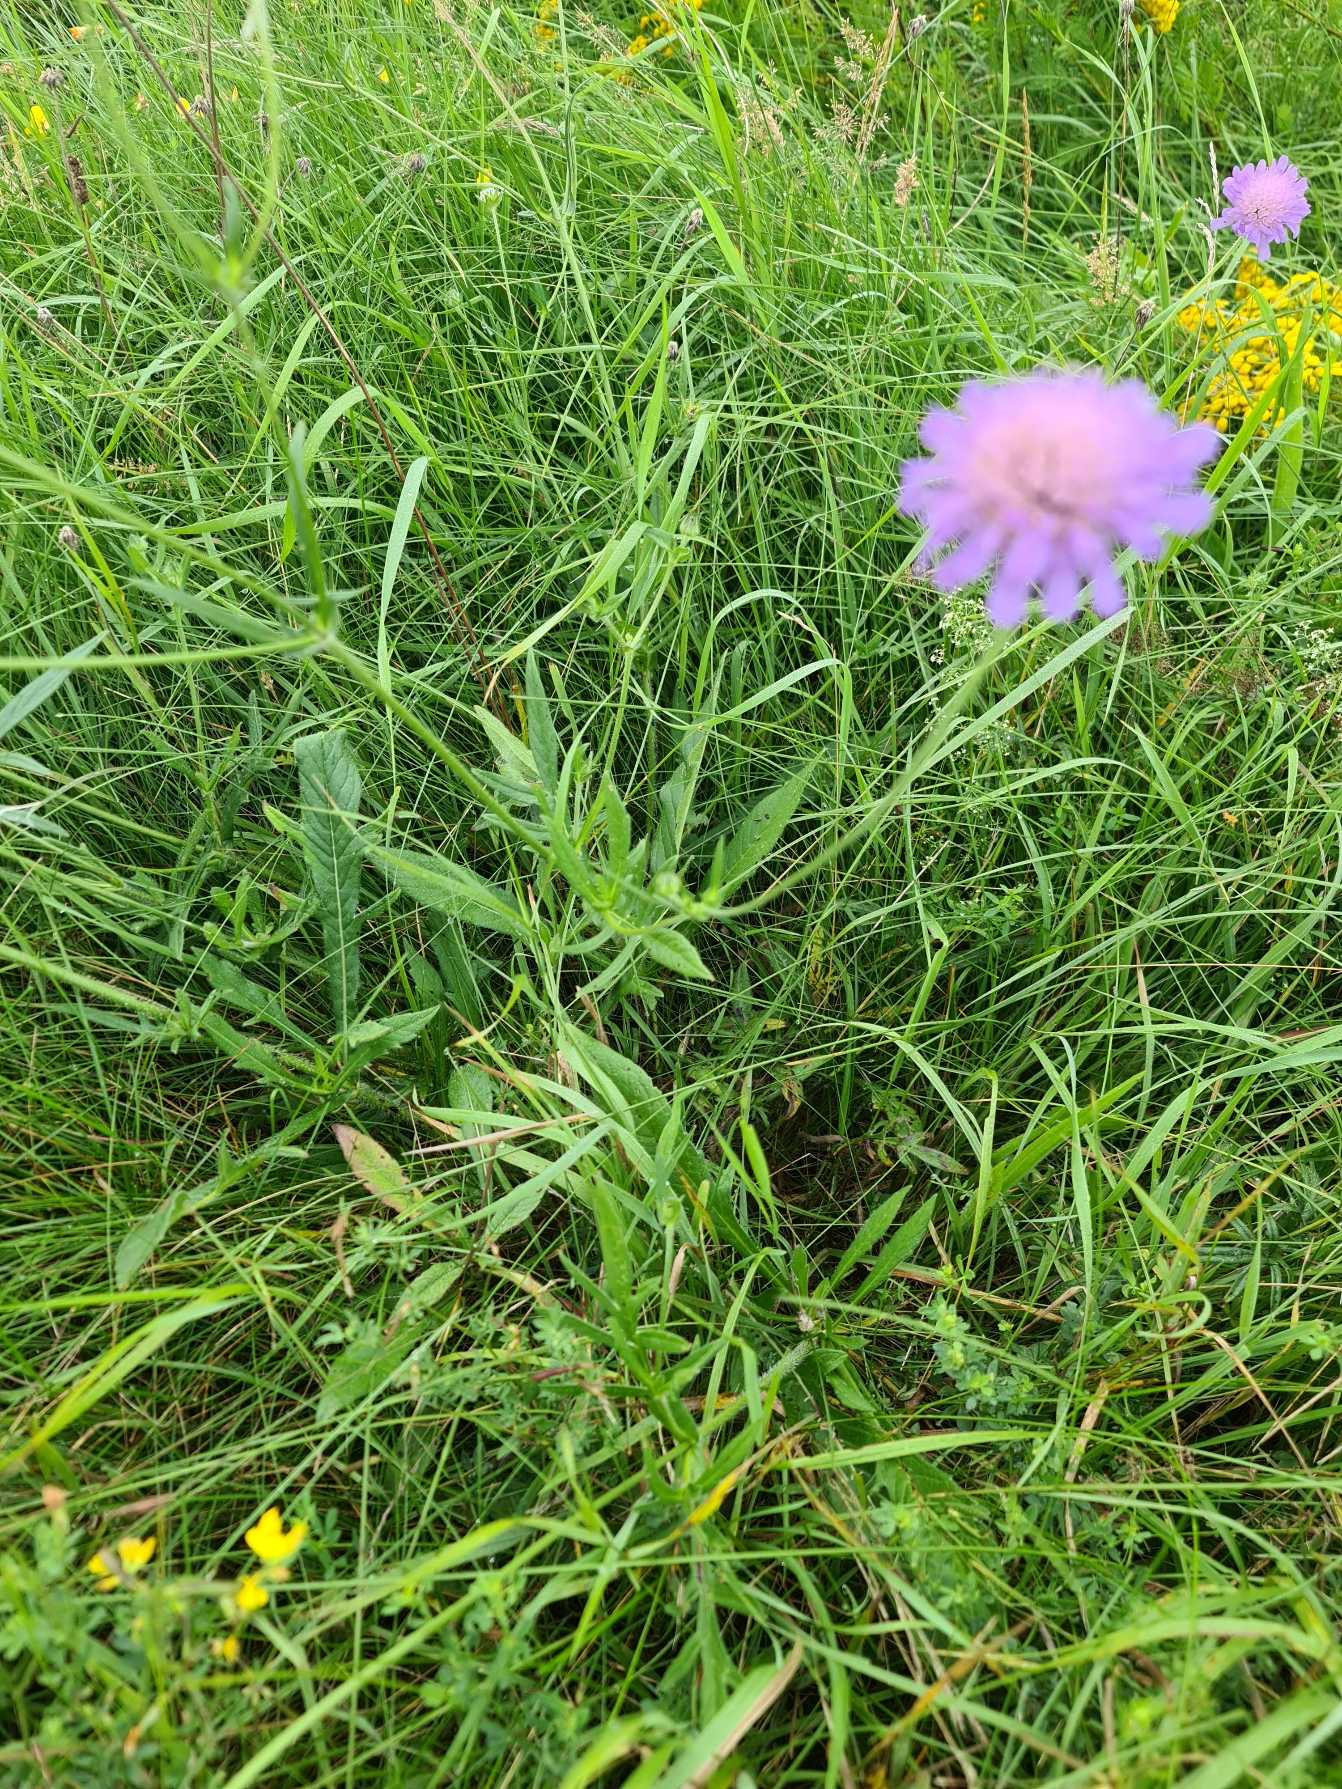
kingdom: Plantae
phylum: Tracheophyta
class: Magnoliopsida
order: Dipsacales
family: Caprifoliaceae
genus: Knautia
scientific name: Knautia arvensis
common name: Blåhat
